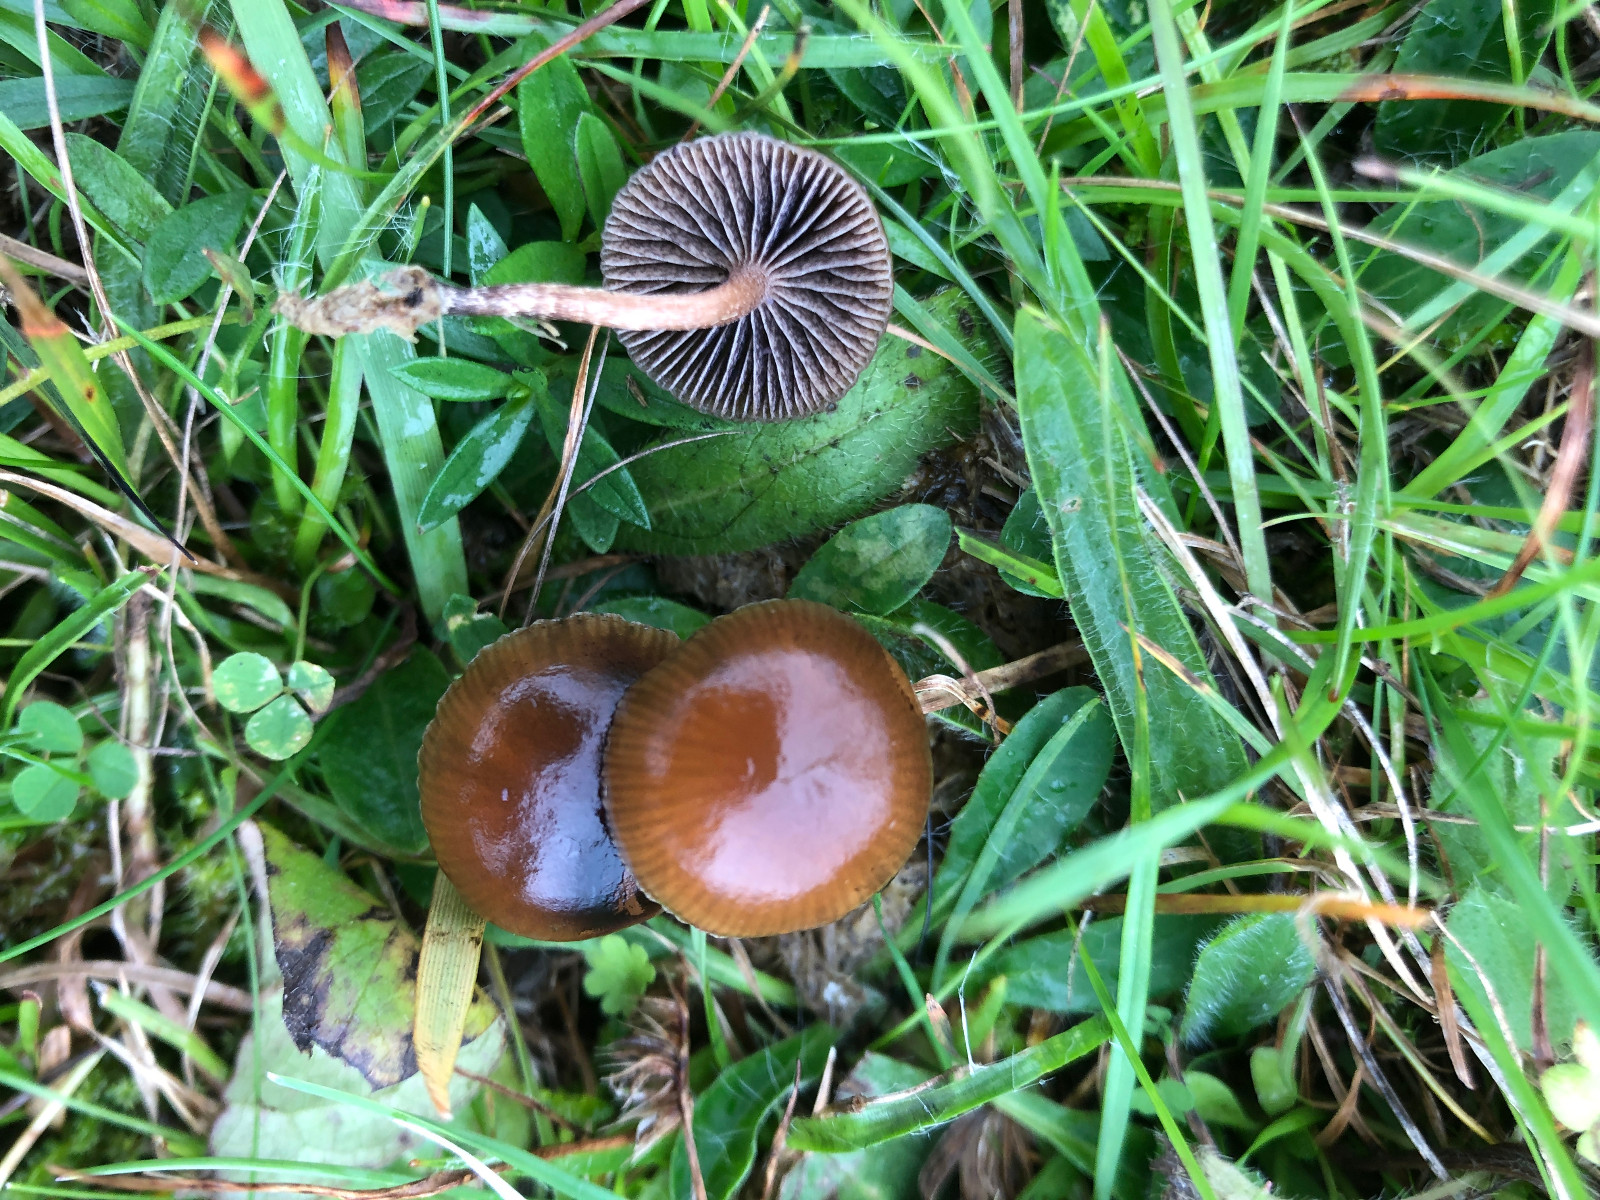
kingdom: Fungi
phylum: Basidiomycota
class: Agaricomycetes
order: Agaricales
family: Strophariaceae
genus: Deconica
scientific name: Deconica coprophila
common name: gødnings-stråhat
